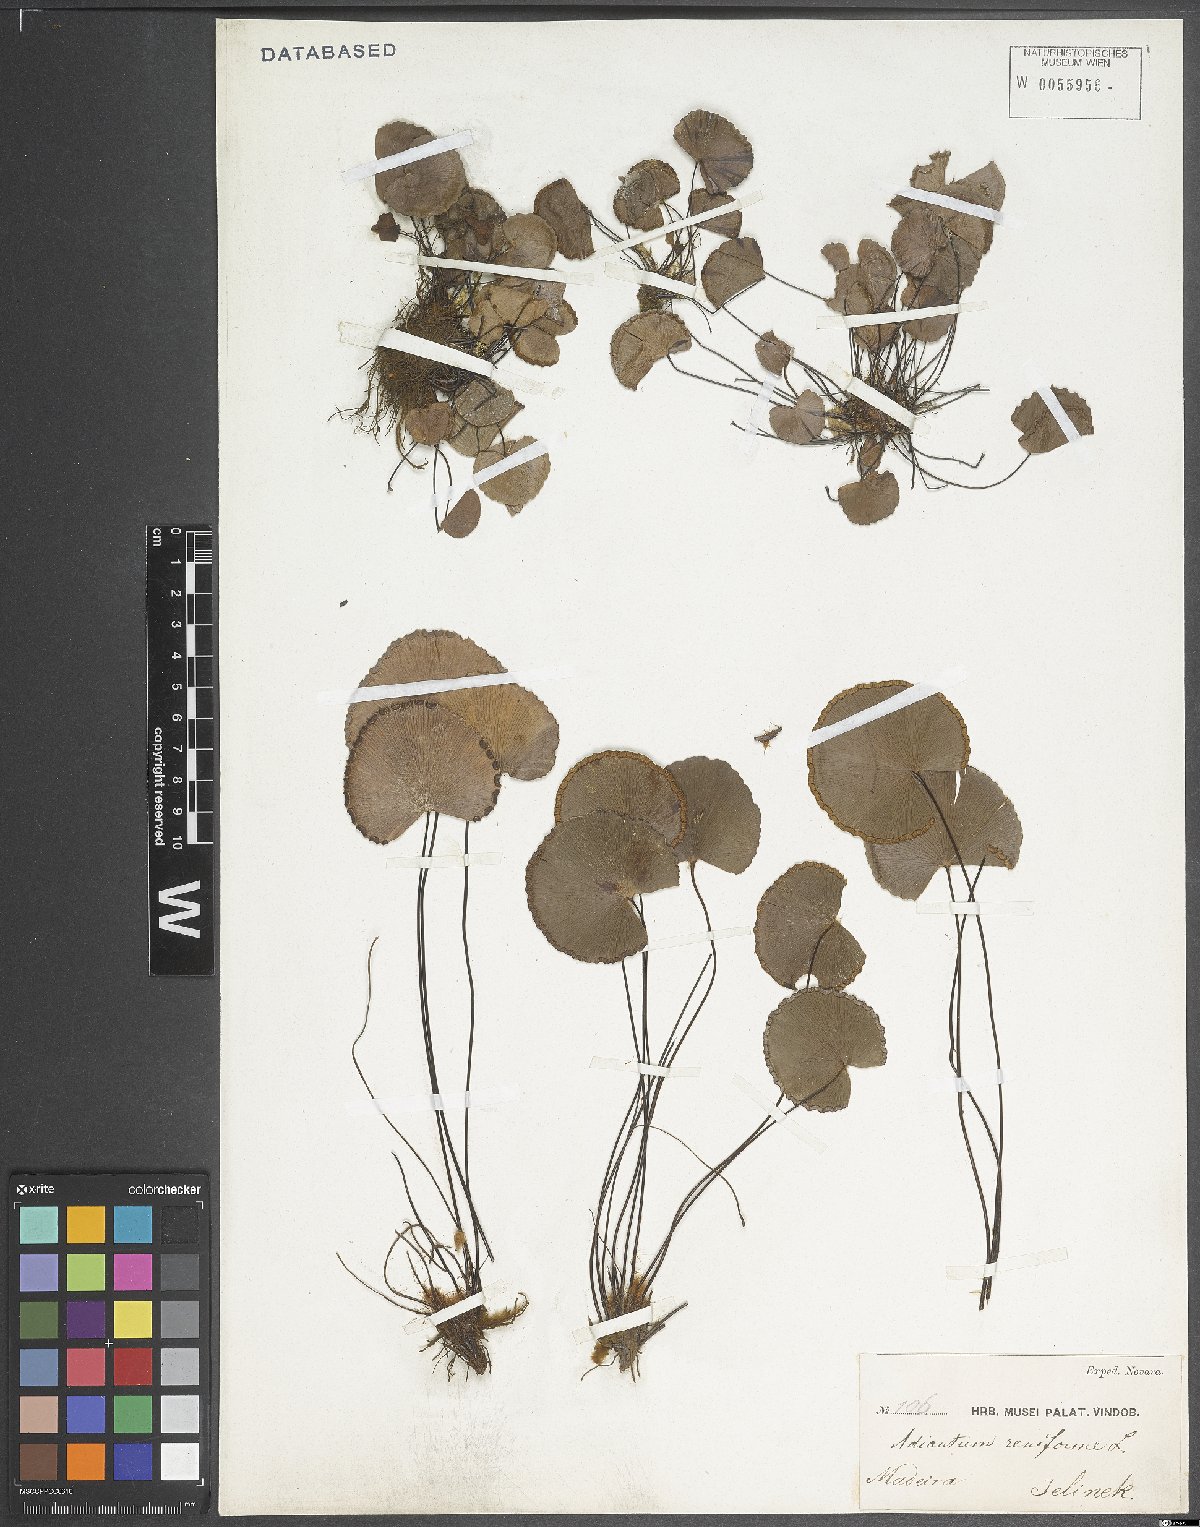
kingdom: Plantae
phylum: Tracheophyta
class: Polypodiopsida
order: Polypodiales
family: Pteridaceae
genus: Adiantum
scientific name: Adiantum reniforme
